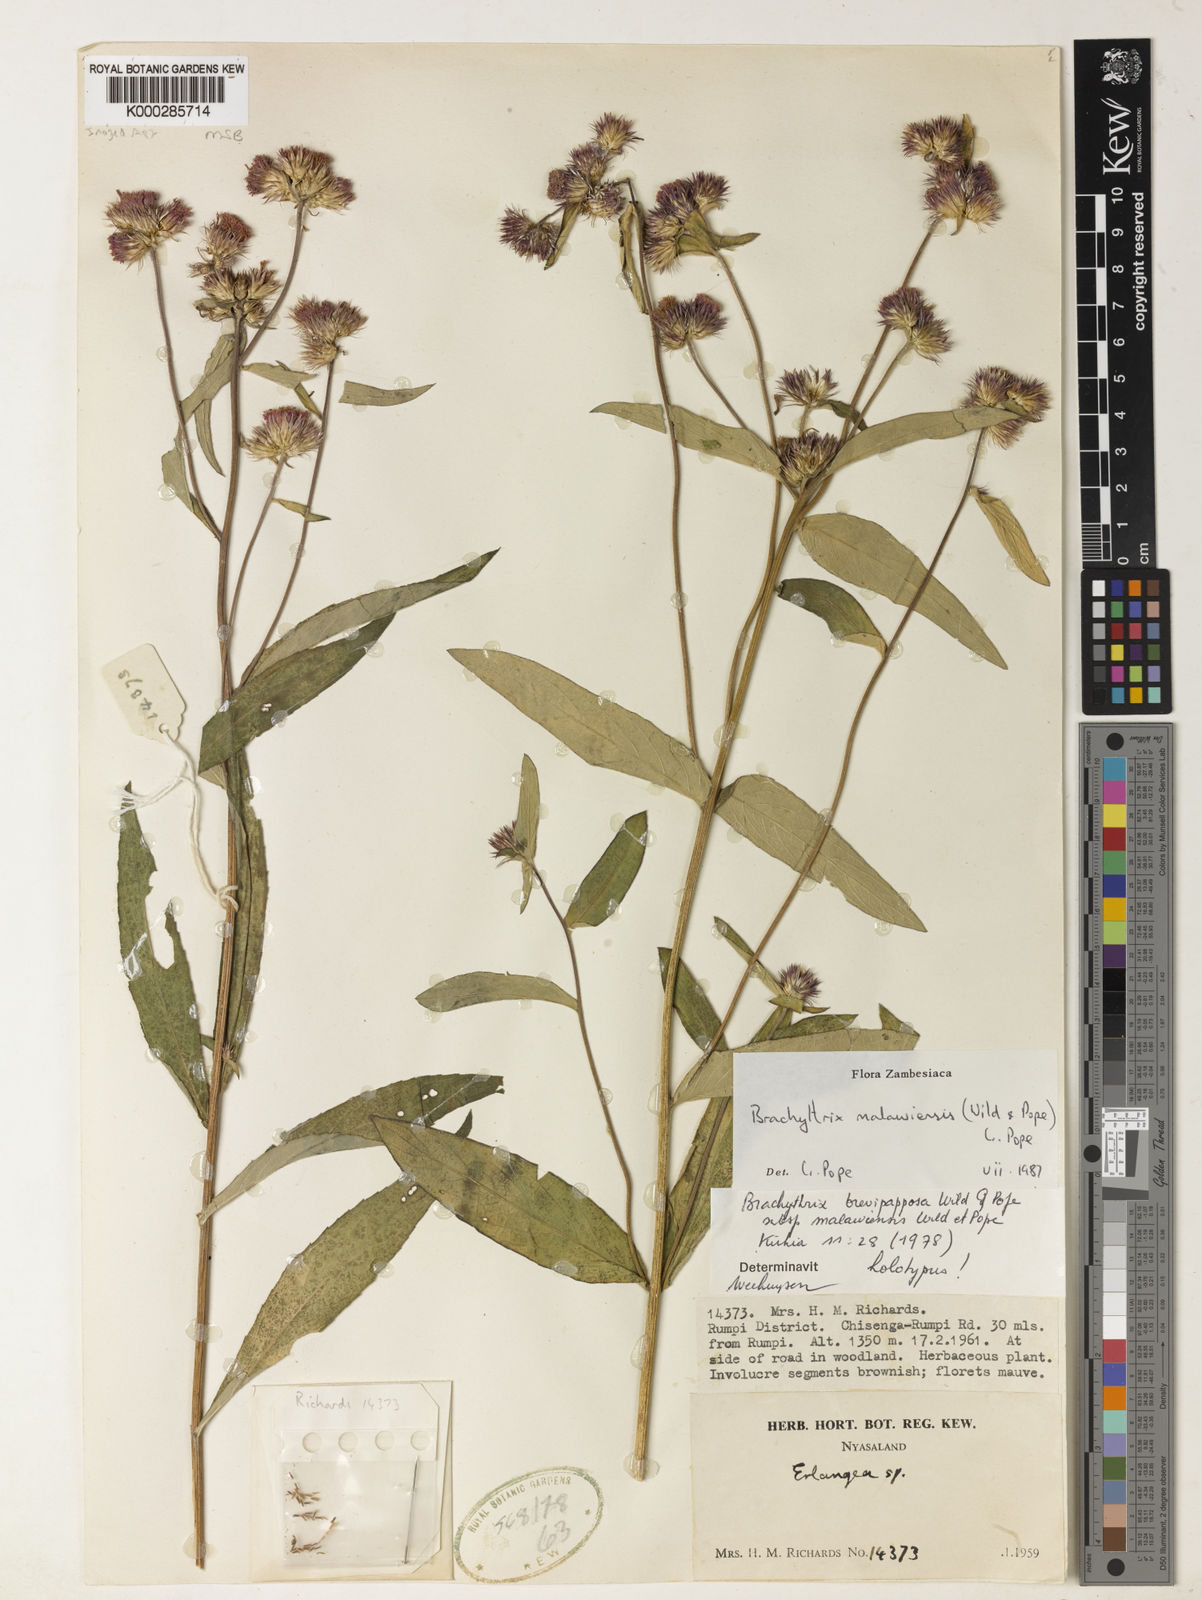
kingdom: Plantae
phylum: Tracheophyta
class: Magnoliopsida
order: Asterales
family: Asteraceae
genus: Brachythrix
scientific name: Brachythrix malawiensis
